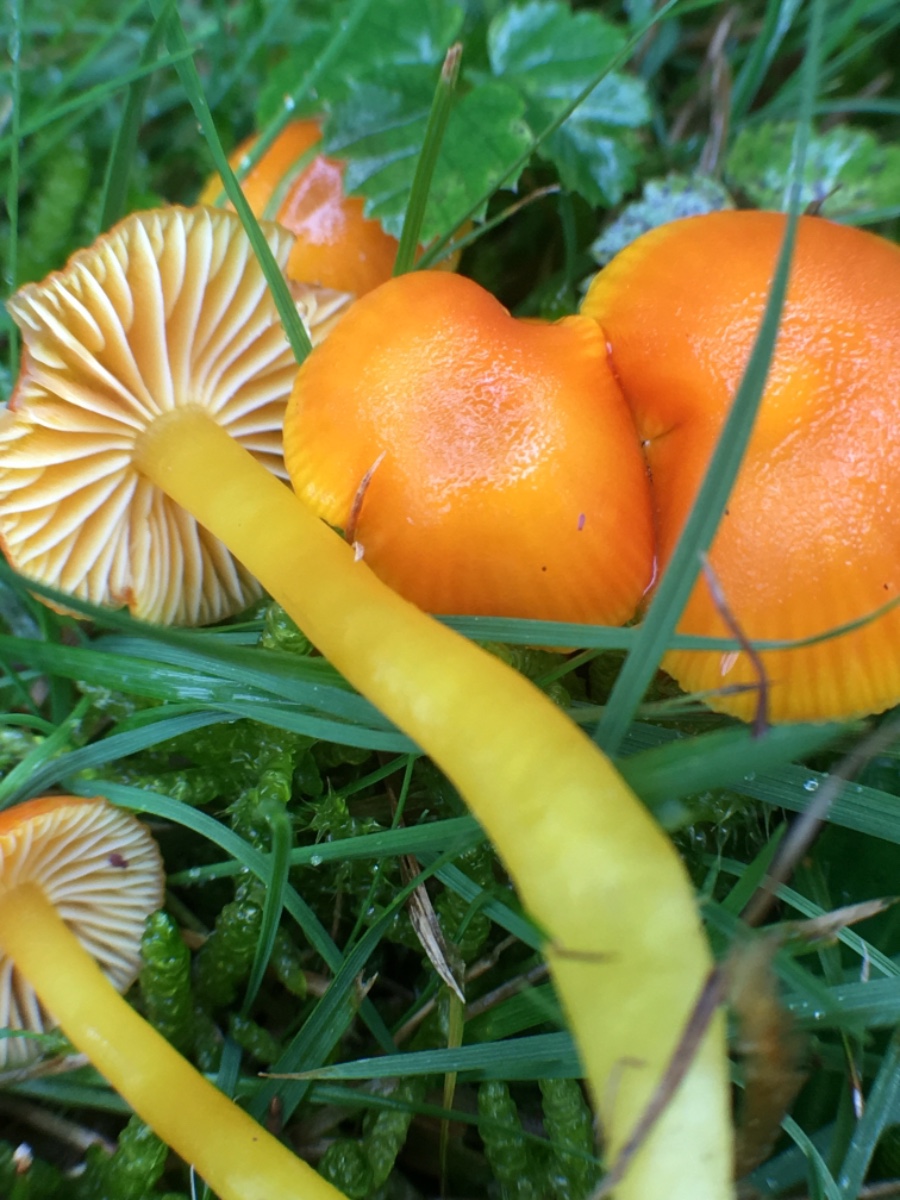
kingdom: Fungi
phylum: Basidiomycota
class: Agaricomycetes
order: Agaricales
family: Hygrophoraceae
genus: Hygrocybe
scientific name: Hygrocybe ceracea
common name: voksgul vokshat
